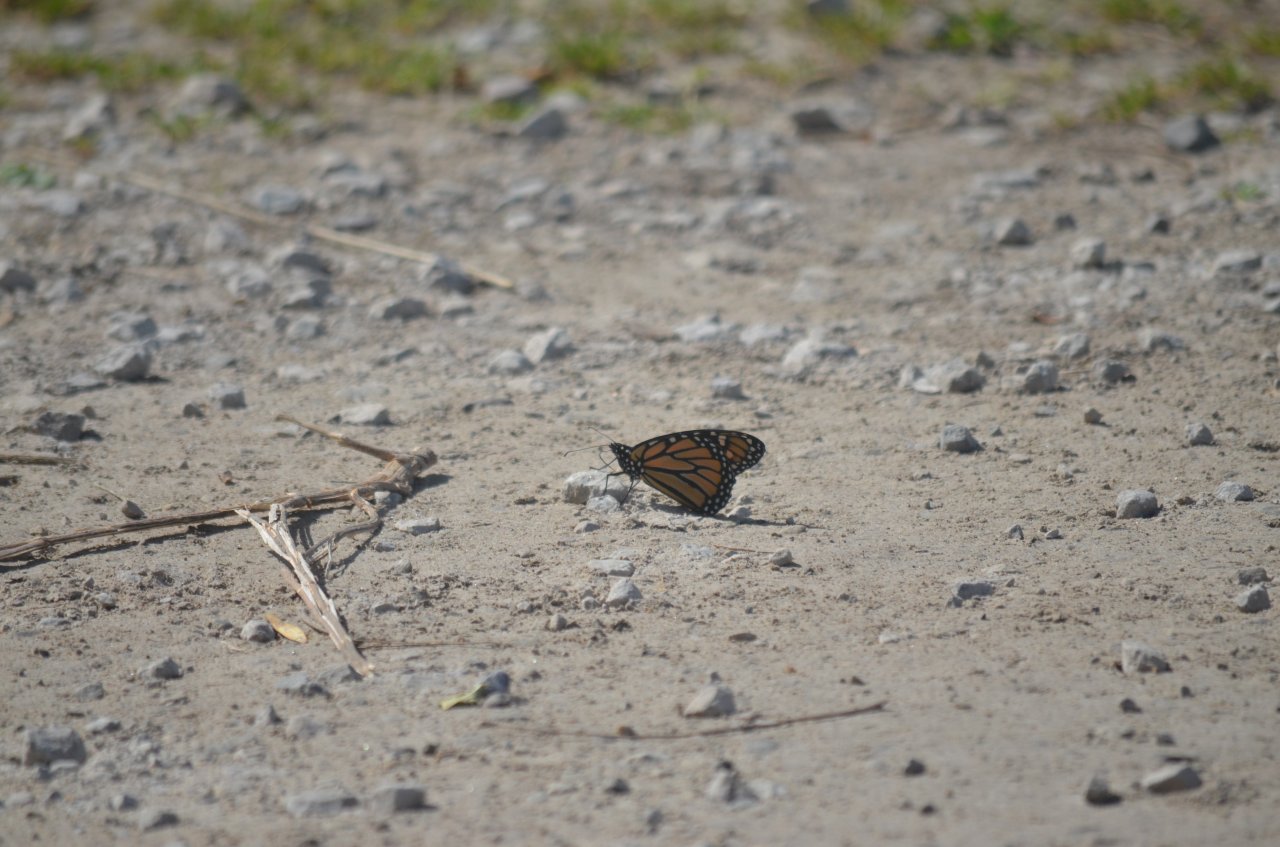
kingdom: Animalia
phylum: Arthropoda
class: Insecta
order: Lepidoptera
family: Nymphalidae
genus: Danaus
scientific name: Danaus plexippus
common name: Monarch
